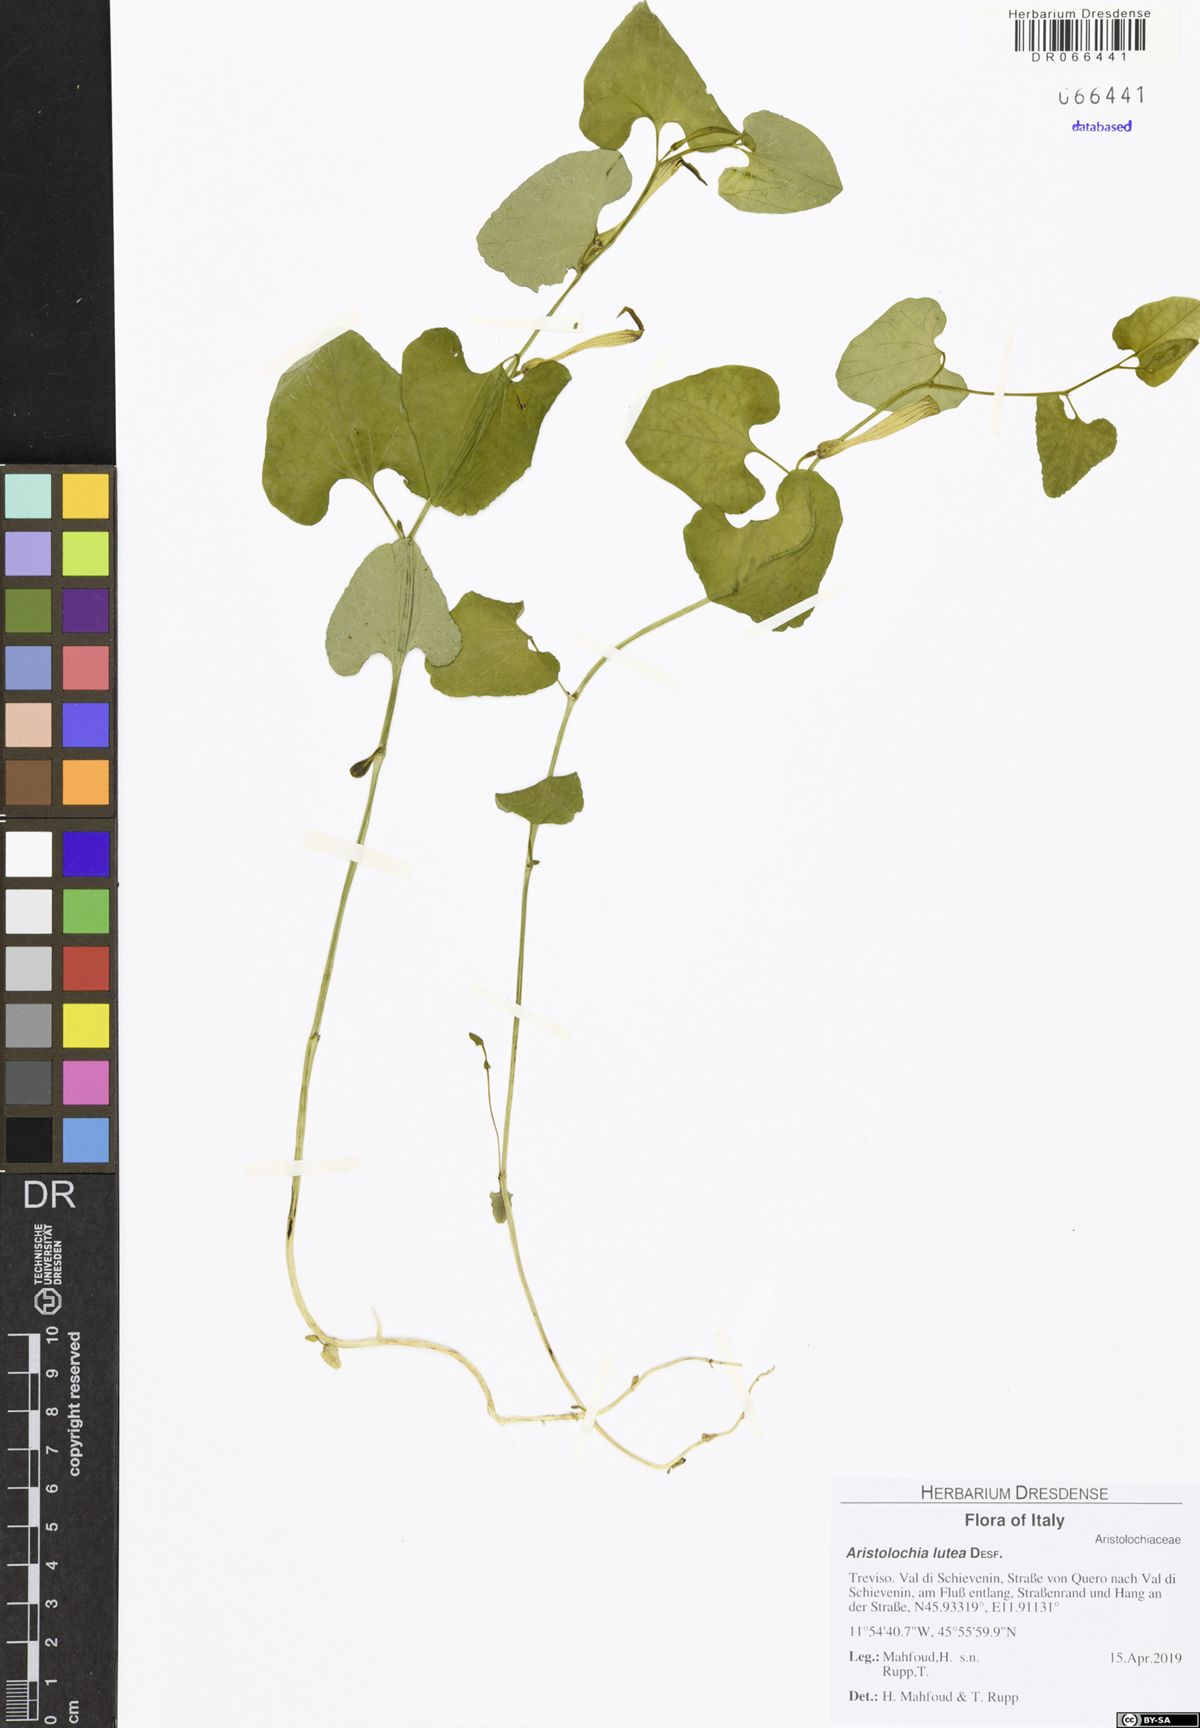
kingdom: Plantae
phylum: Tracheophyta
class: Magnoliopsida
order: Piperales
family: Aristolochiaceae
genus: Aristolochia
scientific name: Aristolochia lutea
